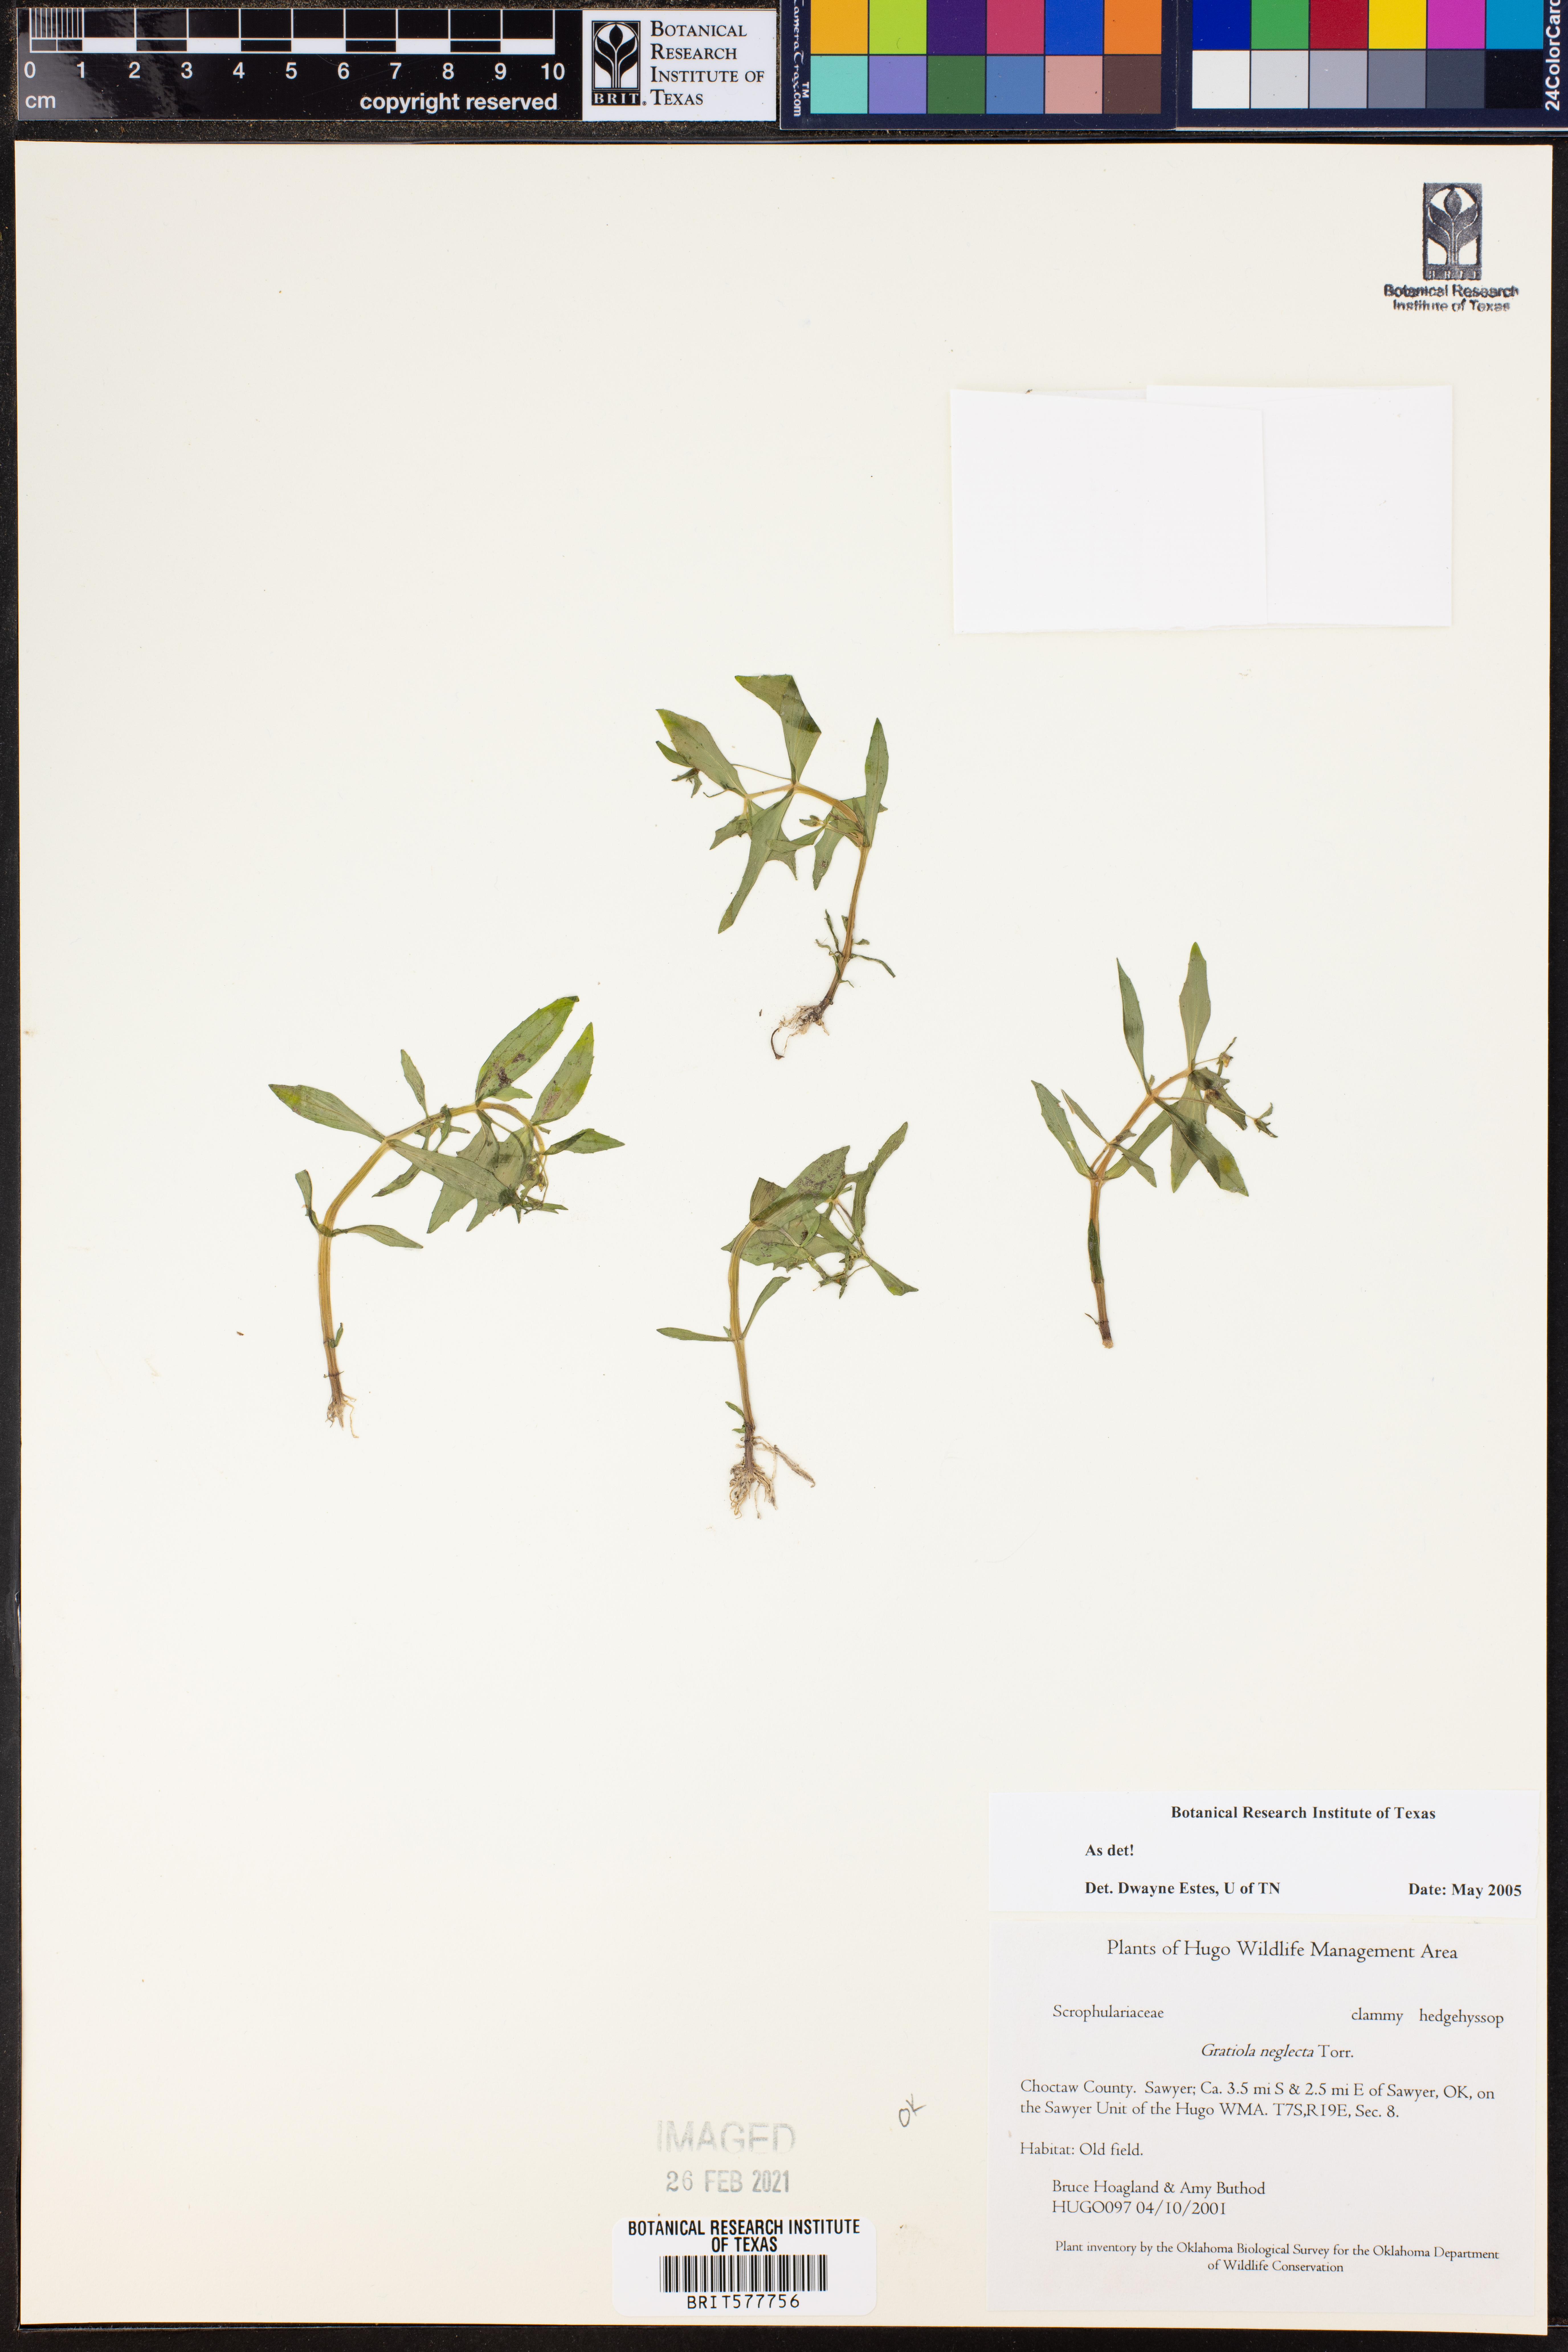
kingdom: Plantae
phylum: Tracheophyta
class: Magnoliopsida
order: Lamiales
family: Plantaginaceae
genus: Gratiola
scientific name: Gratiola neglecta
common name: American hedge-hyssop
